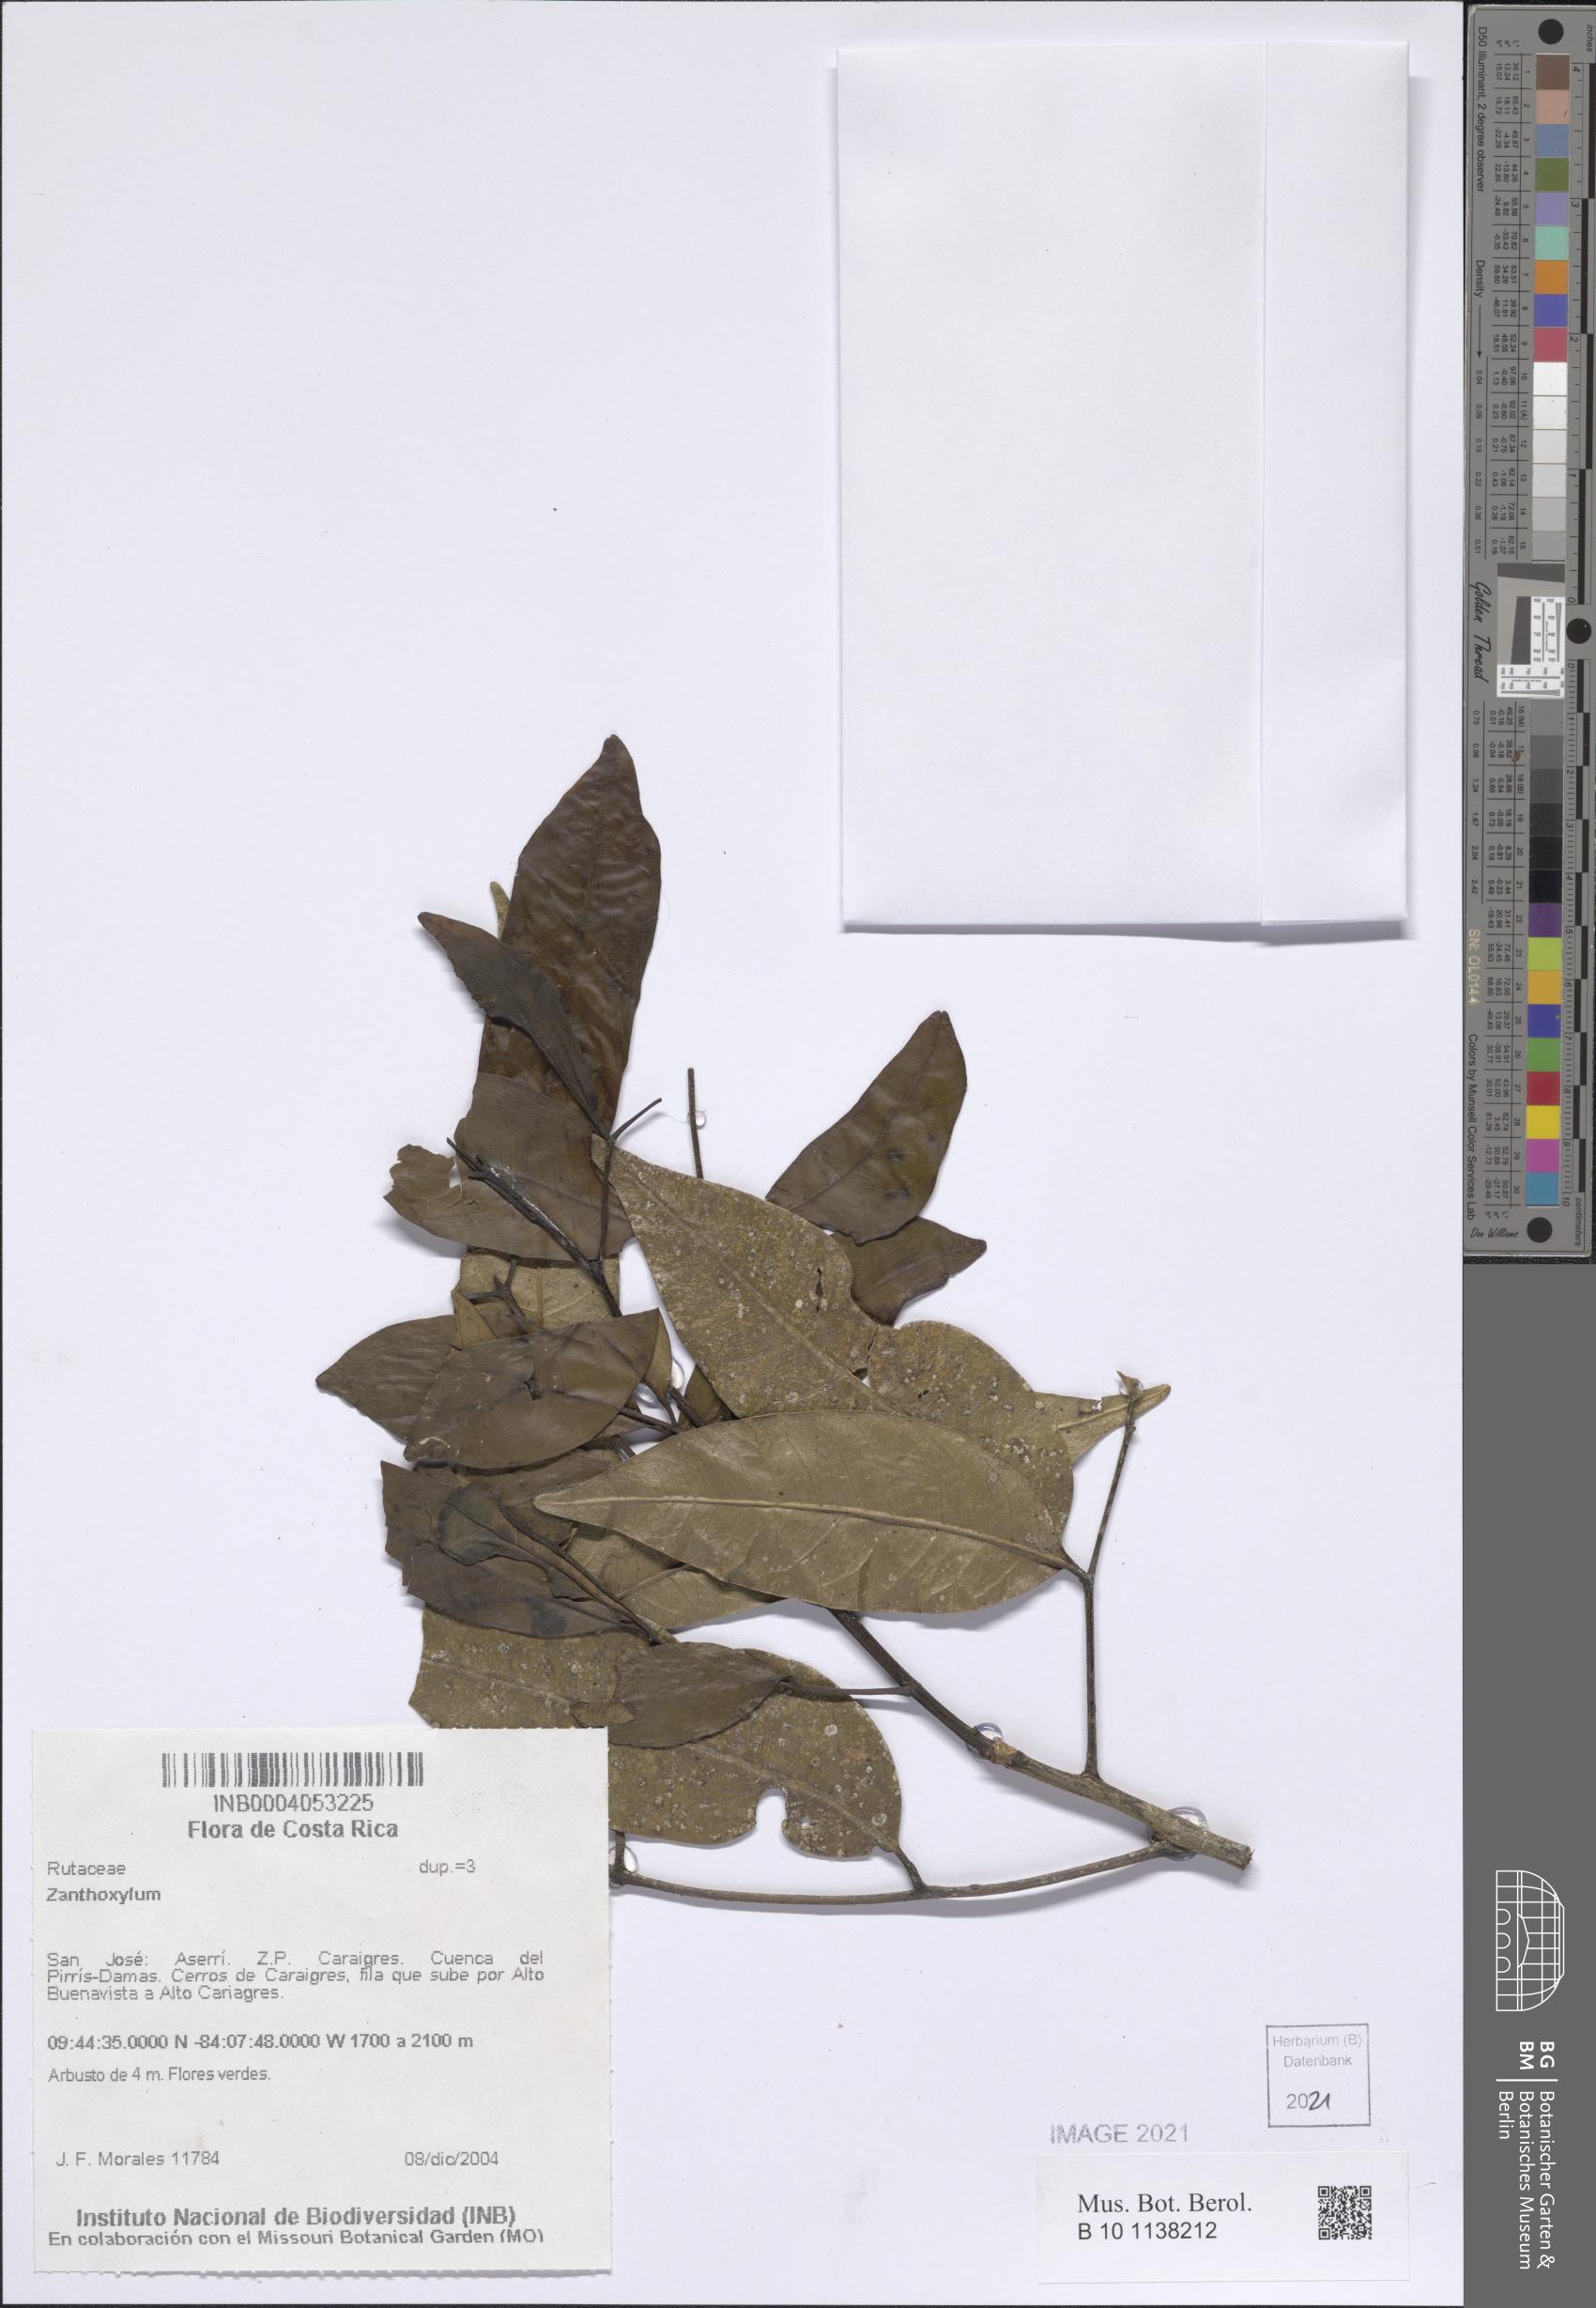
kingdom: Plantae
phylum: Tracheophyta
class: Magnoliopsida
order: Sapindales
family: Rutaceae
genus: Zanthoxylum
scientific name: Zanthoxylum
